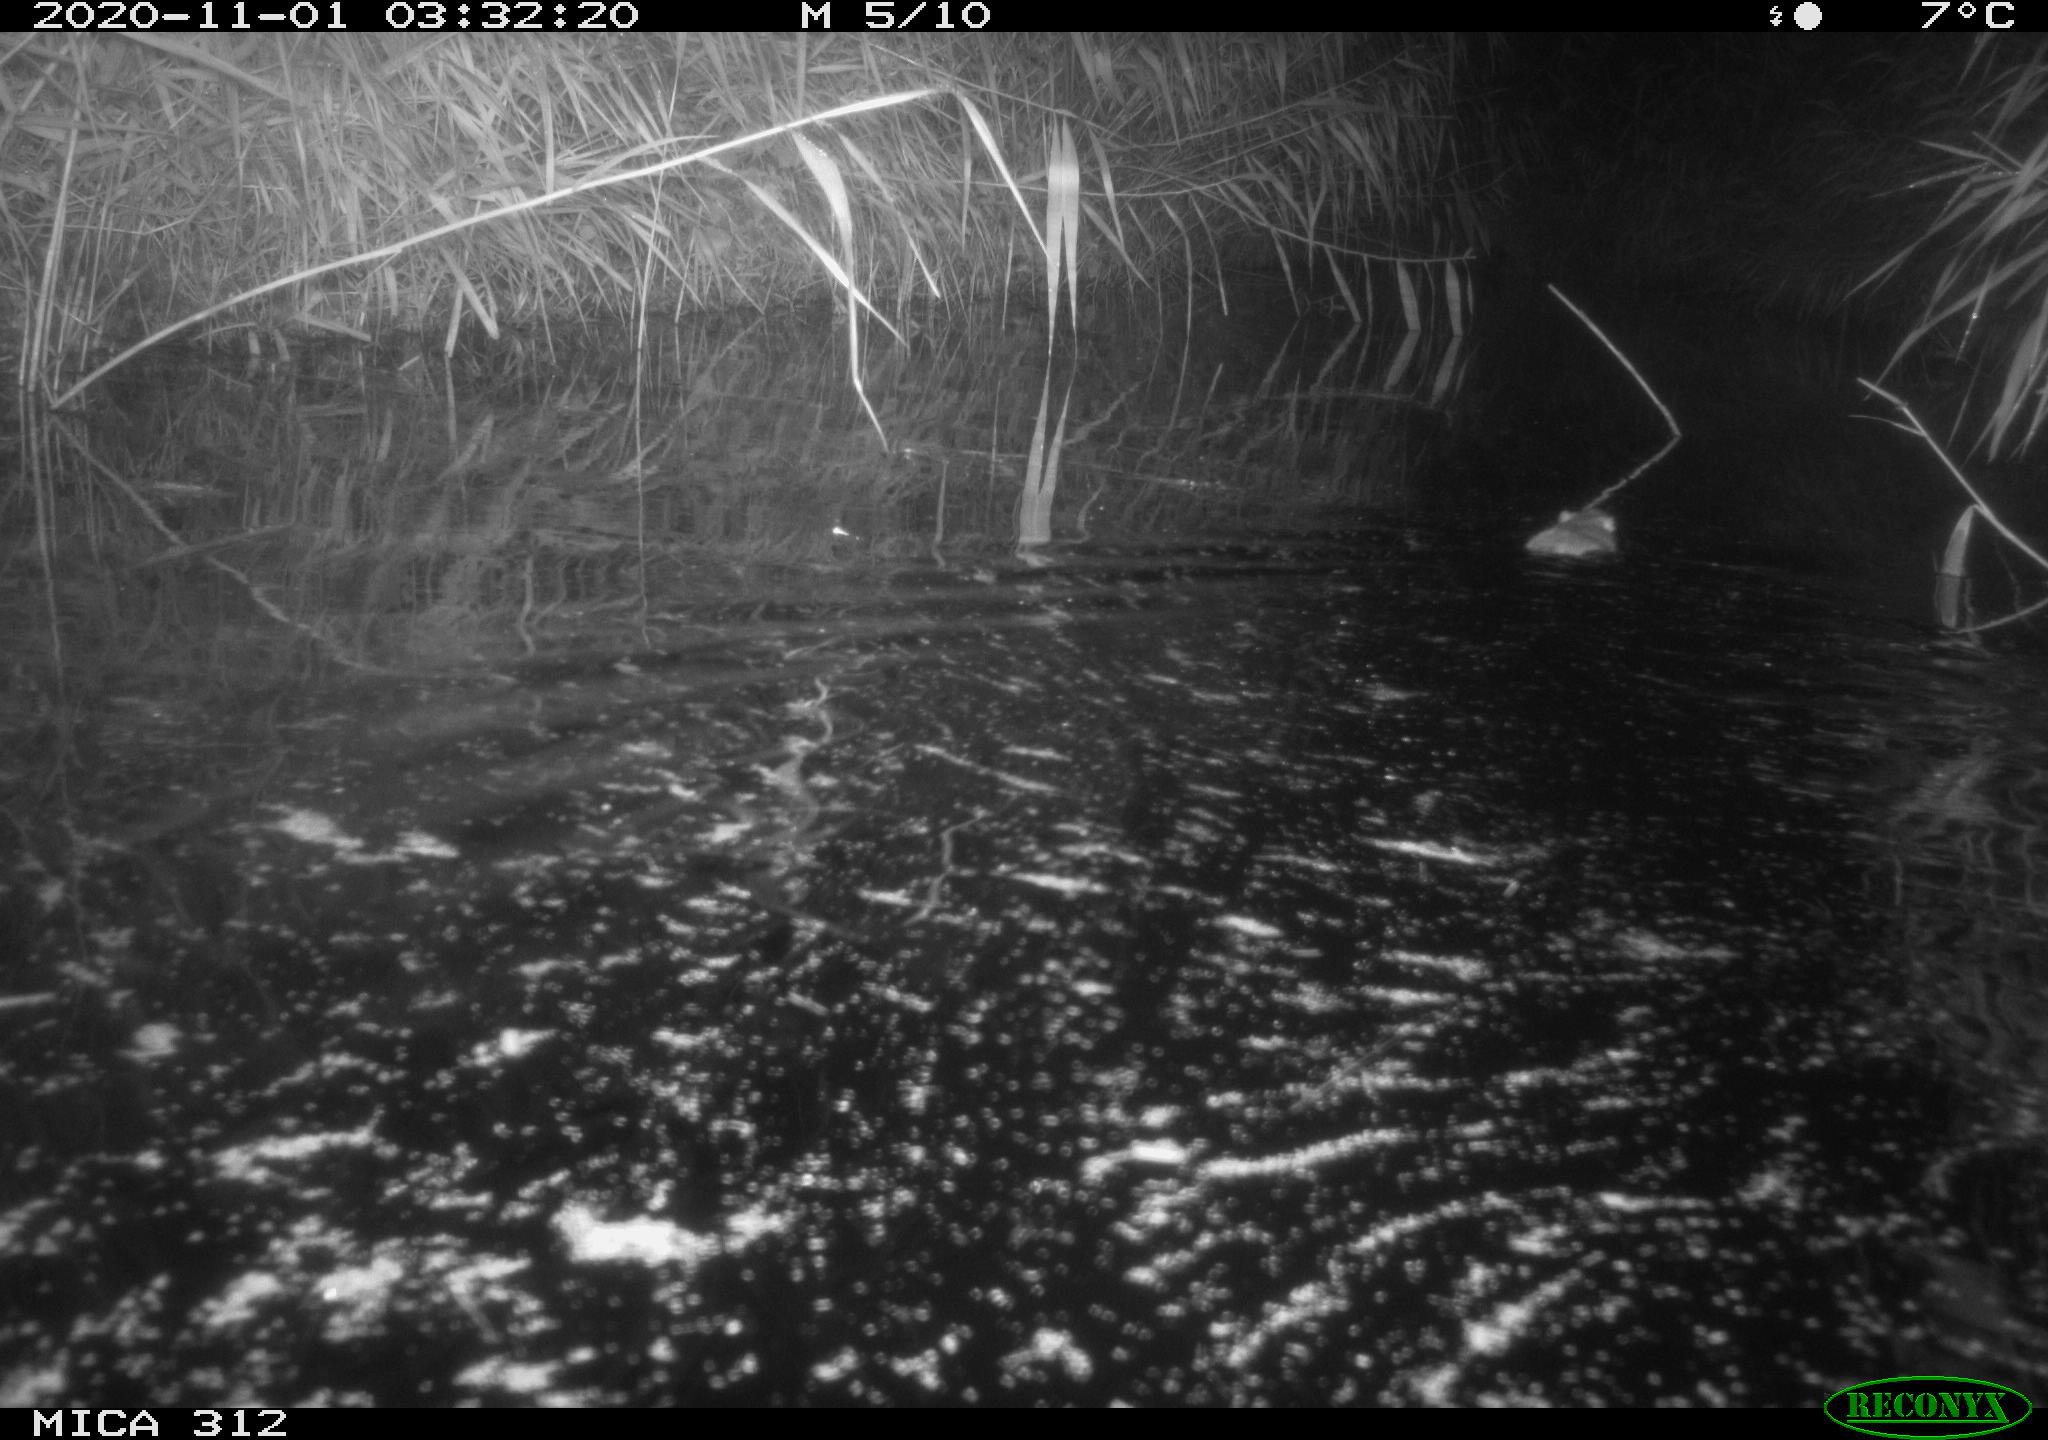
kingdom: Animalia
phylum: Chordata
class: Mammalia
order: Rodentia
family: Muridae
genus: Rattus
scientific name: Rattus norvegicus
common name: Brown rat
